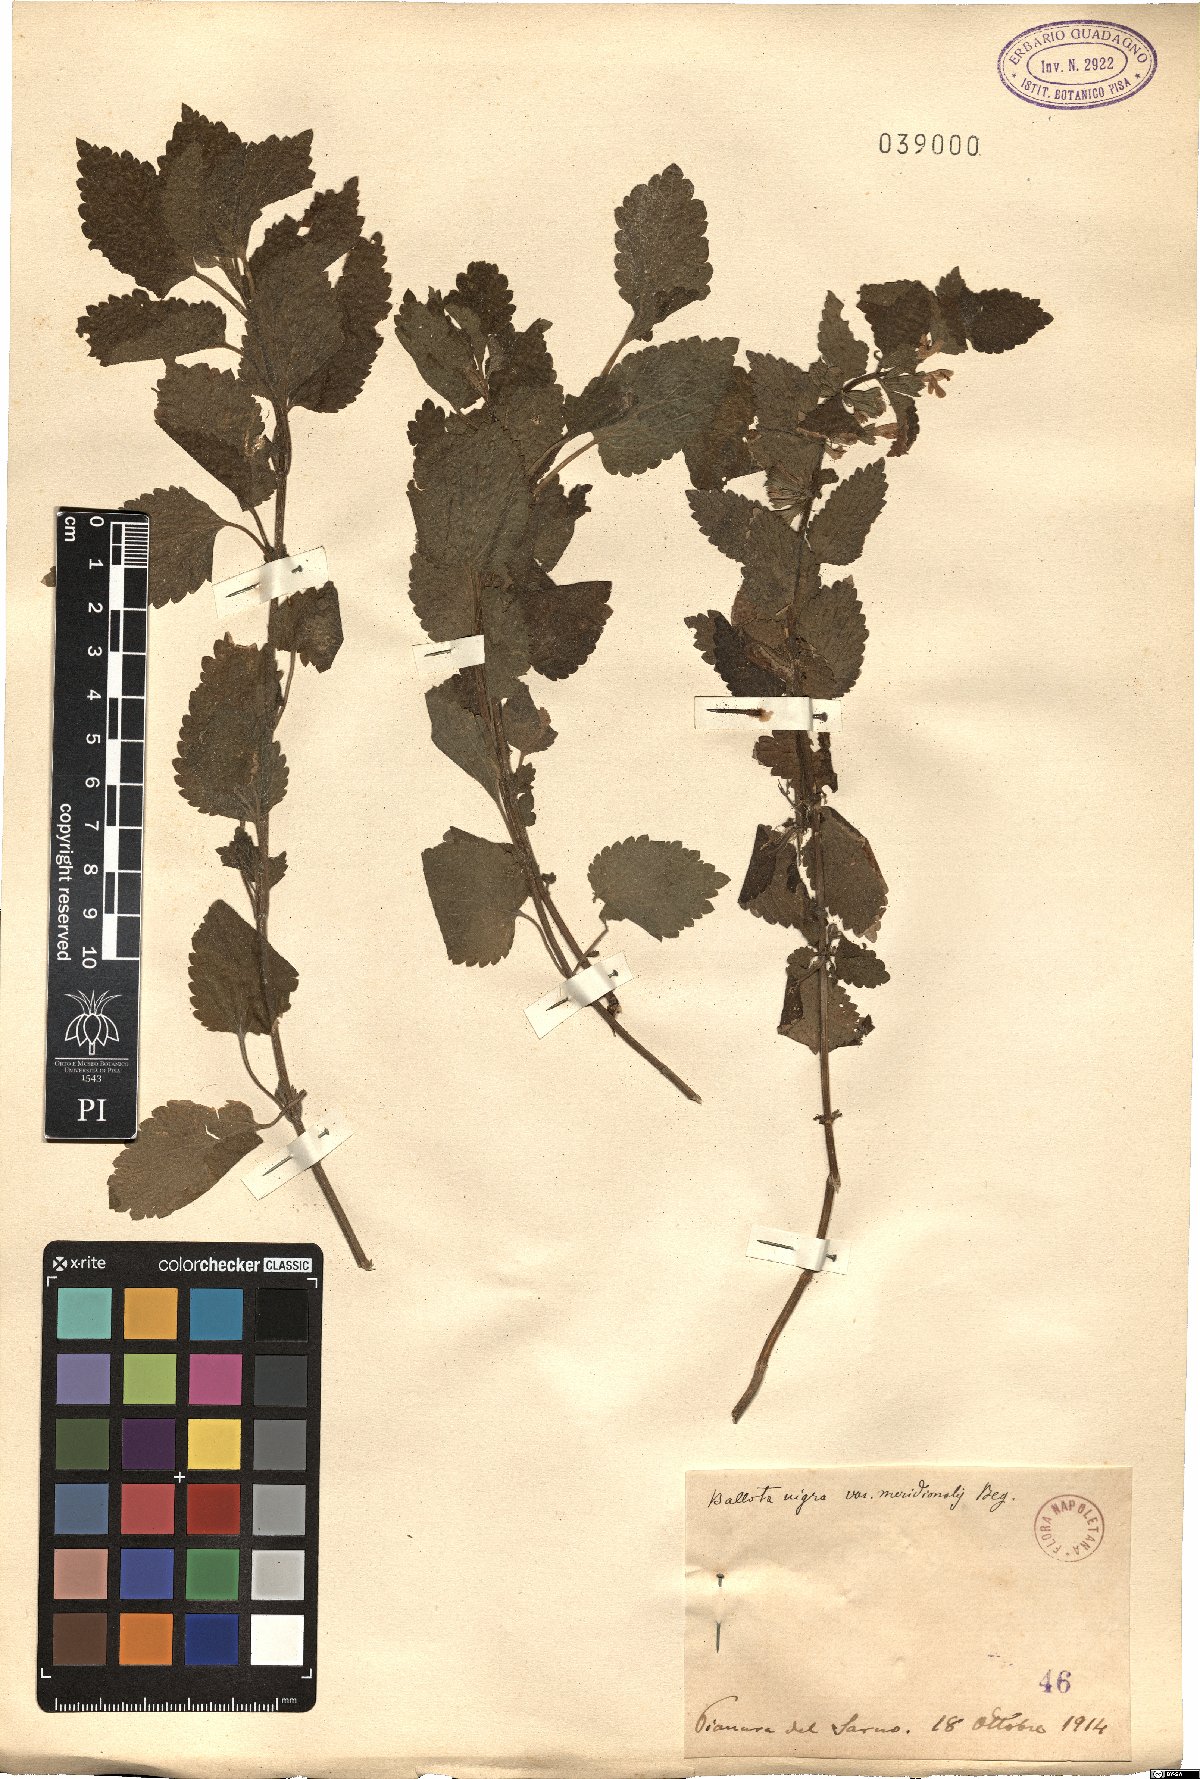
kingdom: Plantae
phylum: Tracheophyta
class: Magnoliopsida
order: Lamiales
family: Lamiaceae
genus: Ballota
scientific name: Ballota nigra
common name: Black horehound
